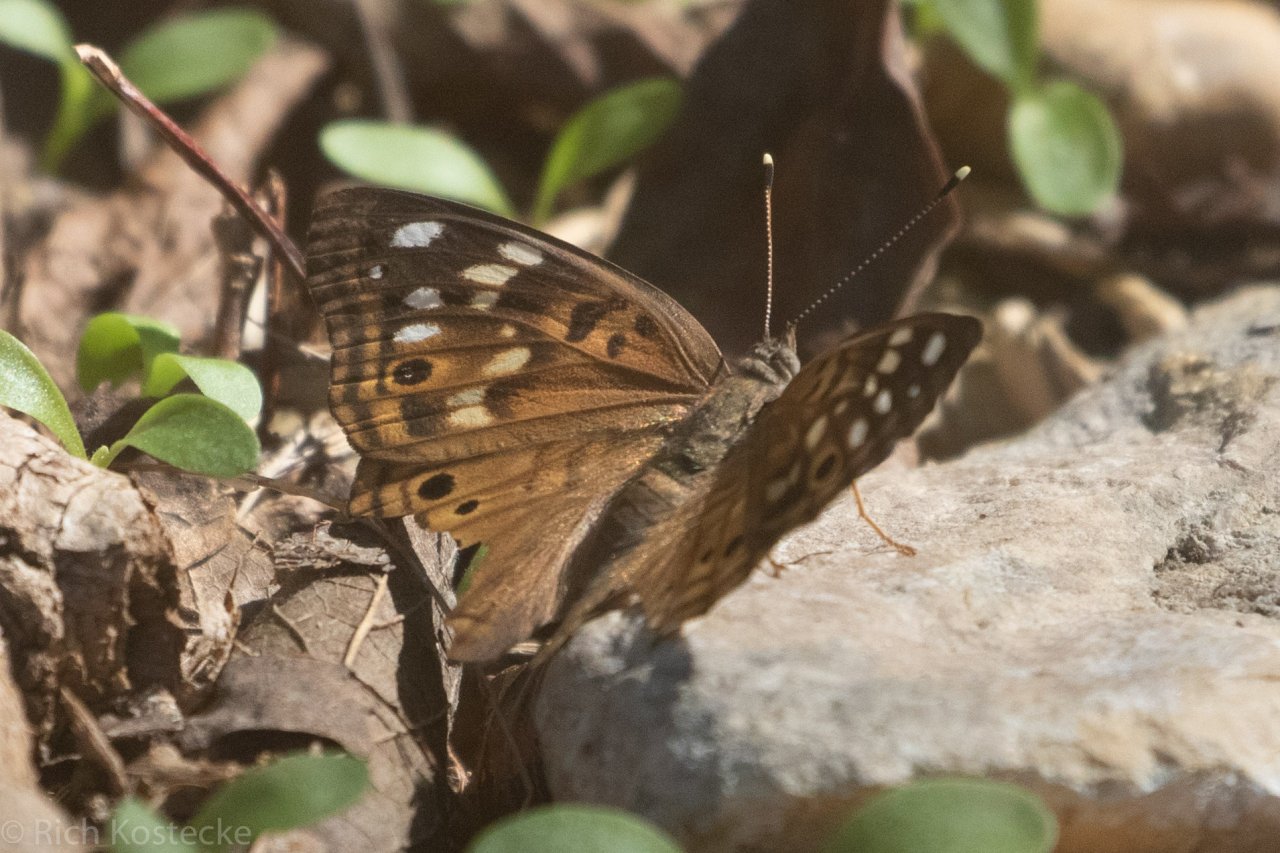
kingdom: Animalia
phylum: Arthropoda
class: Insecta
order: Lepidoptera
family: Nymphalidae
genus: Asterocampa
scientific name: Asterocampa celtis
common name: Hackberry Emperor
